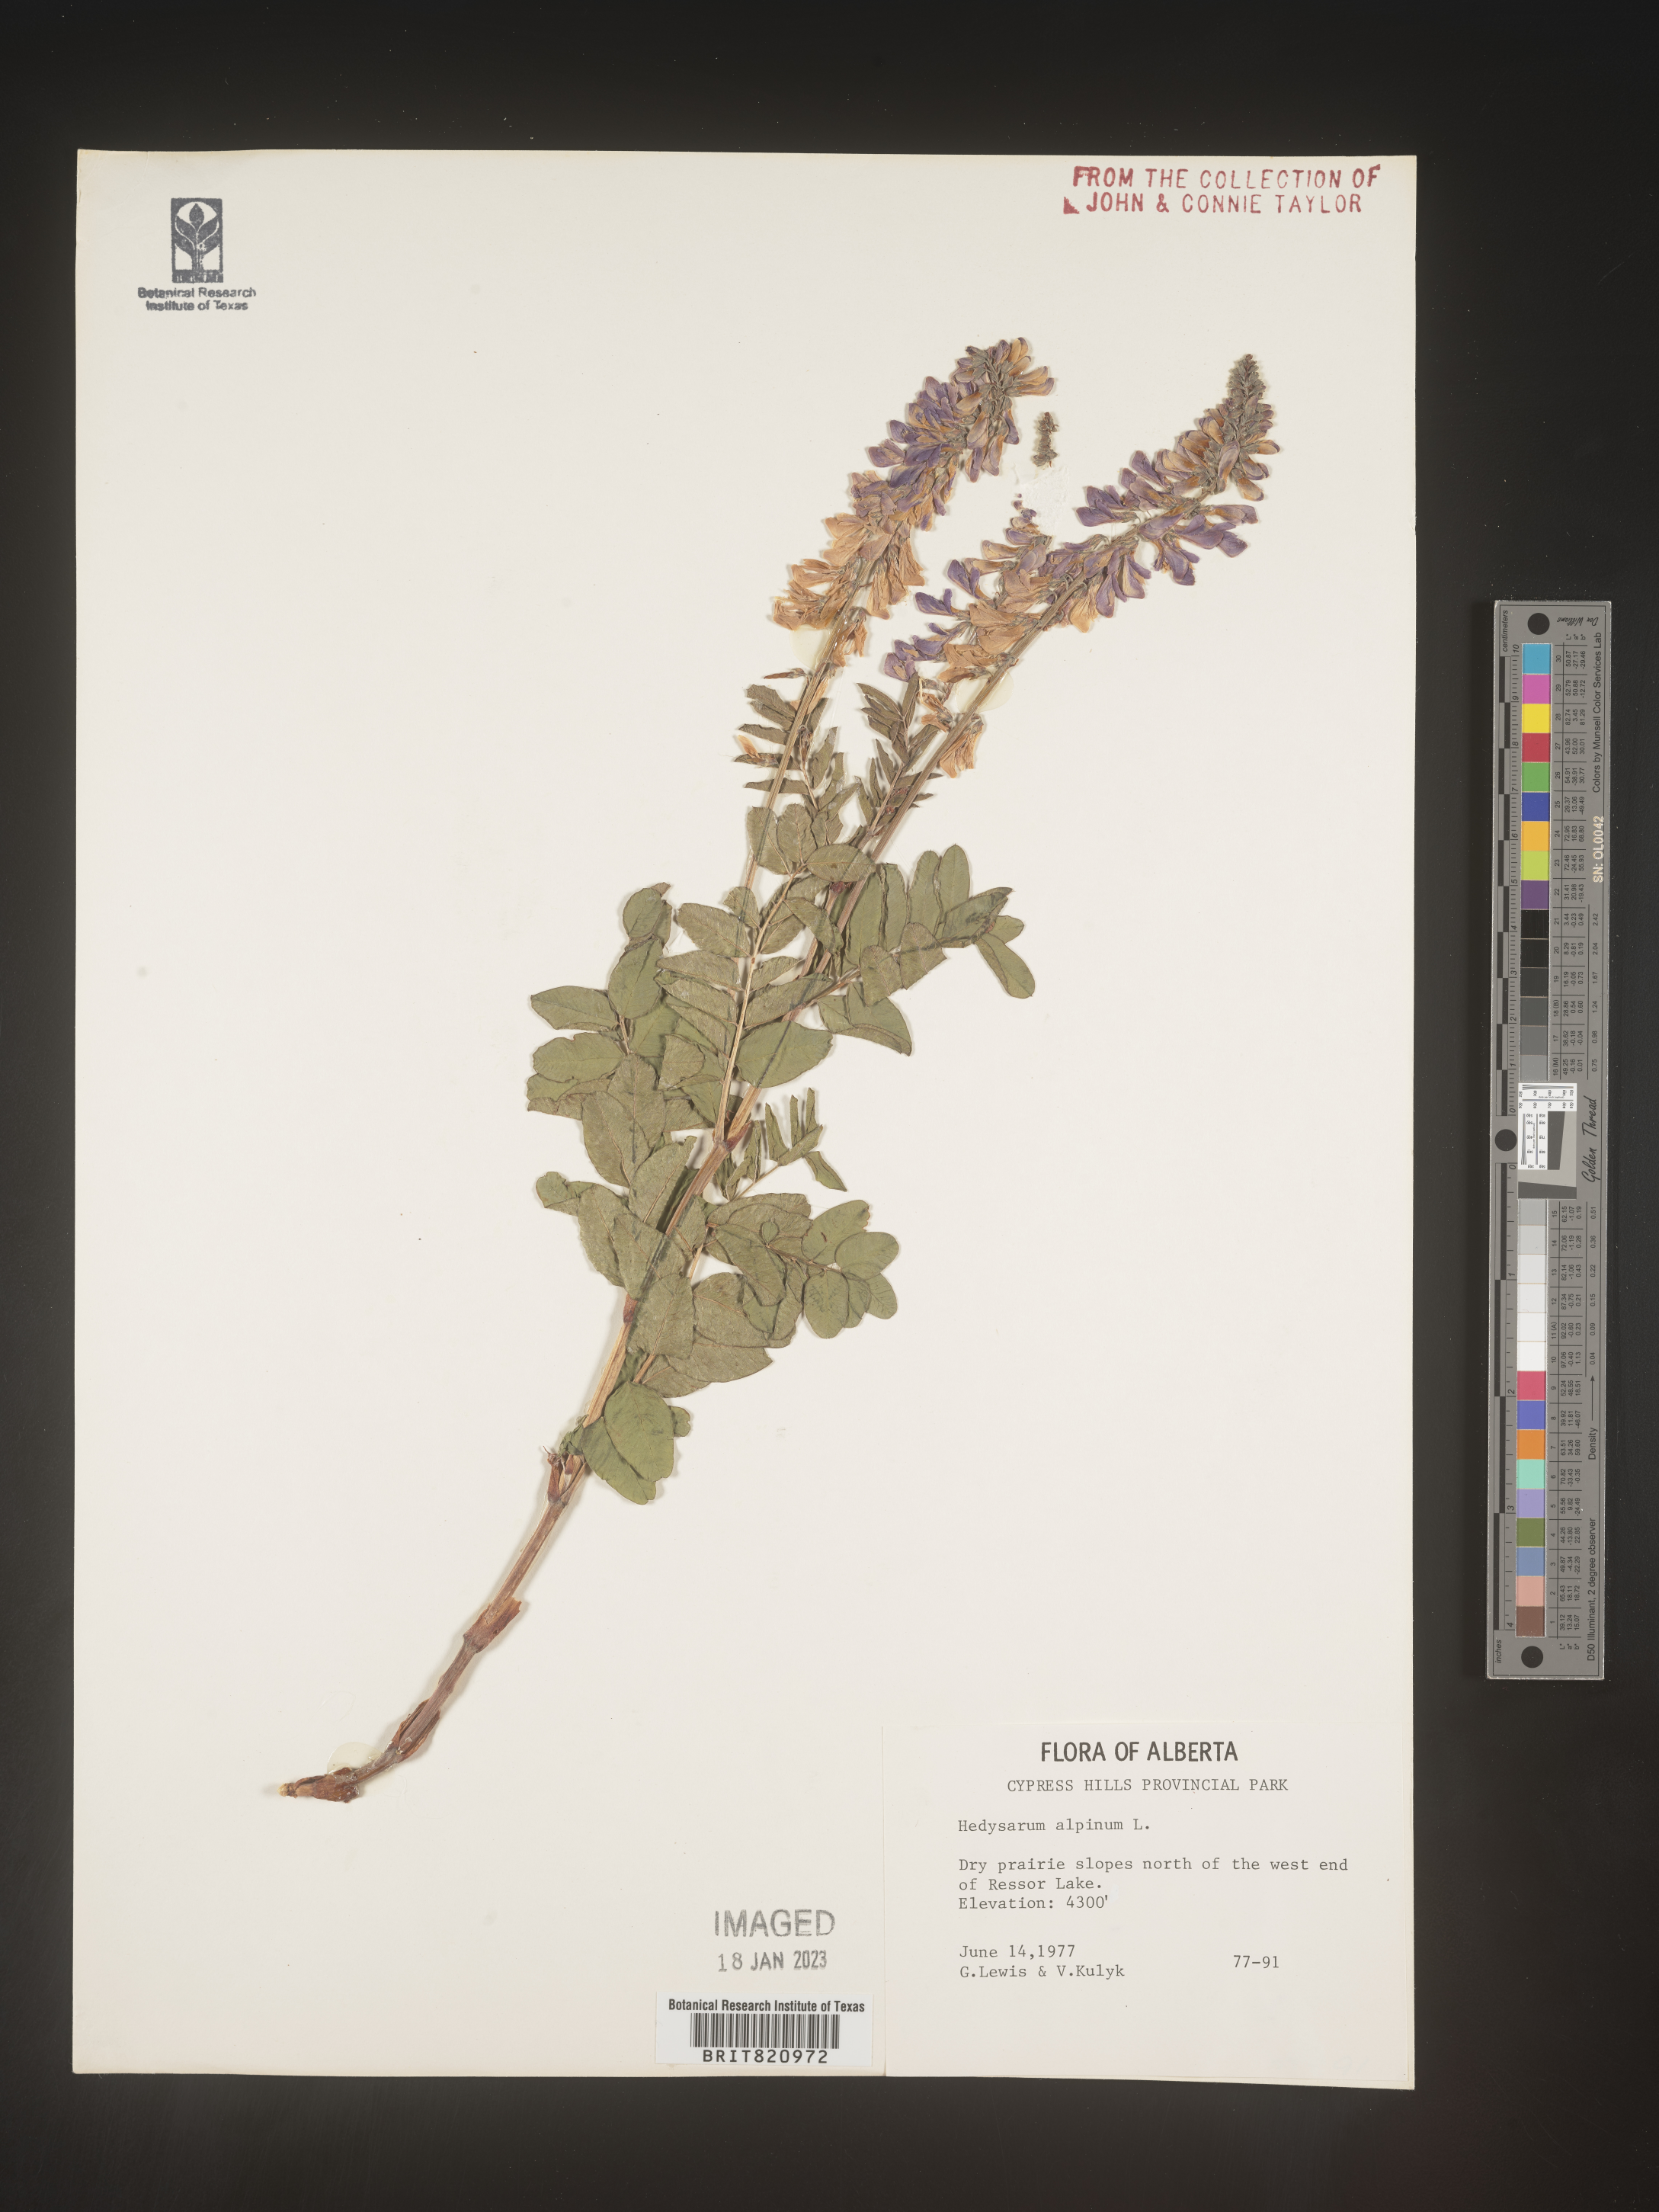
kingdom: Plantae
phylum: Tracheophyta
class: Magnoliopsida
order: Fabales
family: Fabaceae
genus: Hedysarum
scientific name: Hedysarum alpinum
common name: Alpine sweet-vetch
